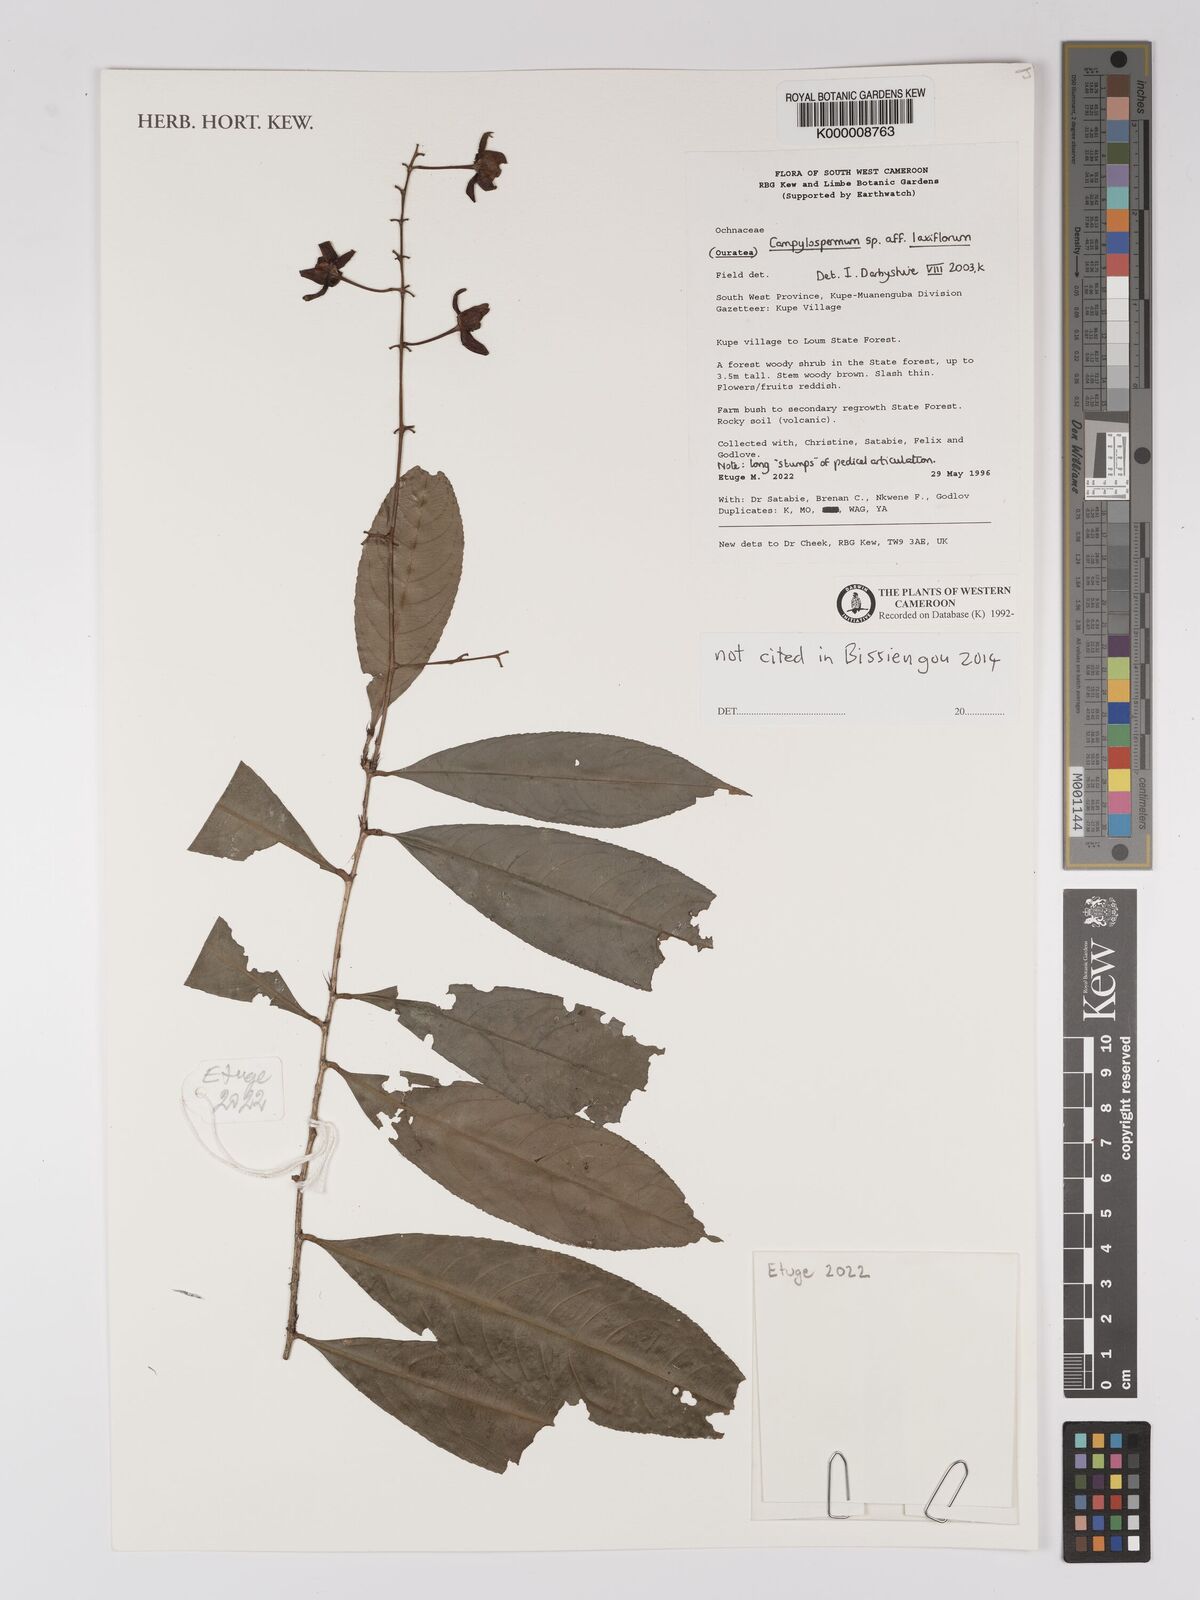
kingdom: Plantae
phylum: Tracheophyta
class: Magnoliopsida
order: Malpighiales
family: Ochnaceae
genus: Campylospermum
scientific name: Campylospermum laxiflorum
